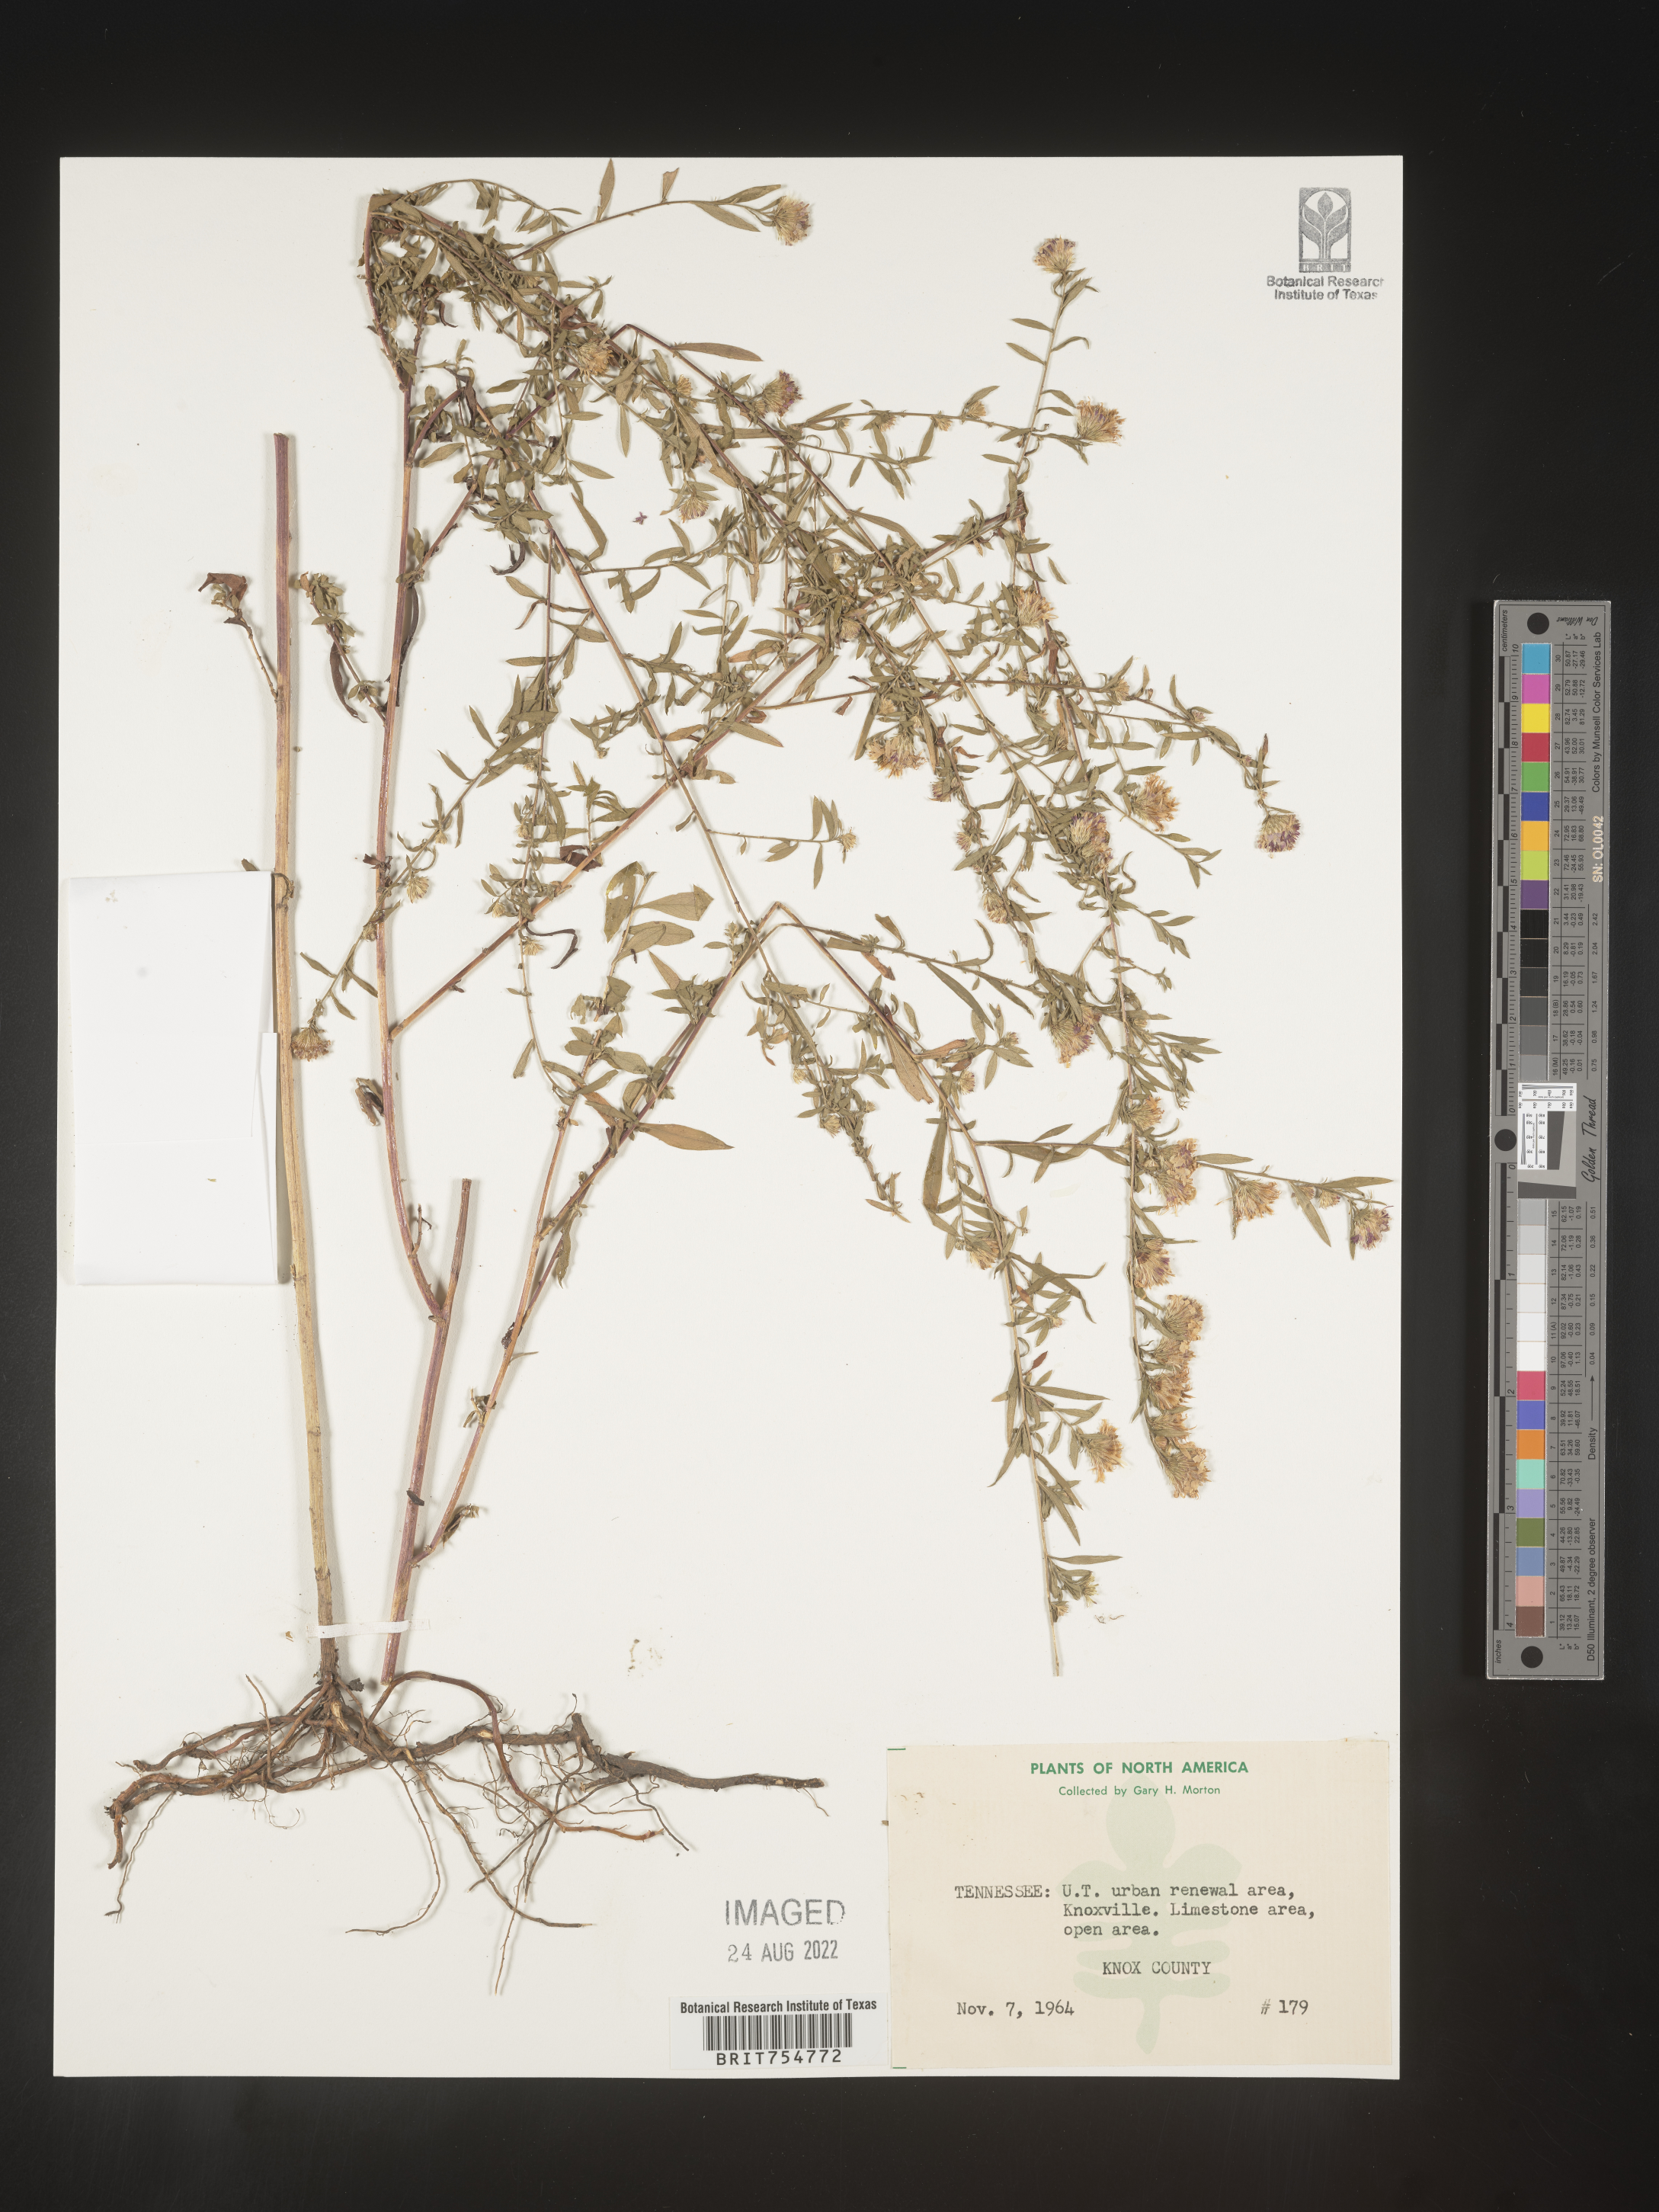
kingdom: Plantae
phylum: Tracheophyta
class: Magnoliopsida
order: Asterales
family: Asteraceae
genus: Symphyotrichum
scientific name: Symphyotrichum
